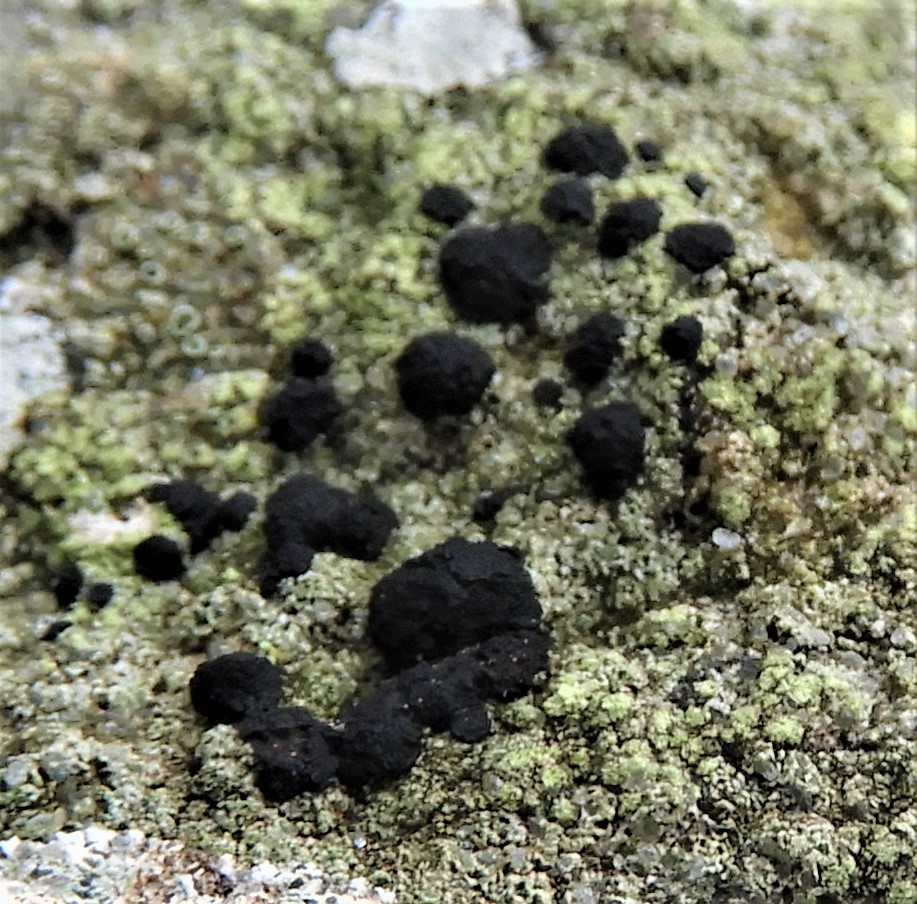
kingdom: Fungi
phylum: Ascomycota
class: Lecanoromycetes
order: Lecanorales
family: Lecanoraceae
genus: Lecidella
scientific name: Lecidella scabra
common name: skurvet skivelav
